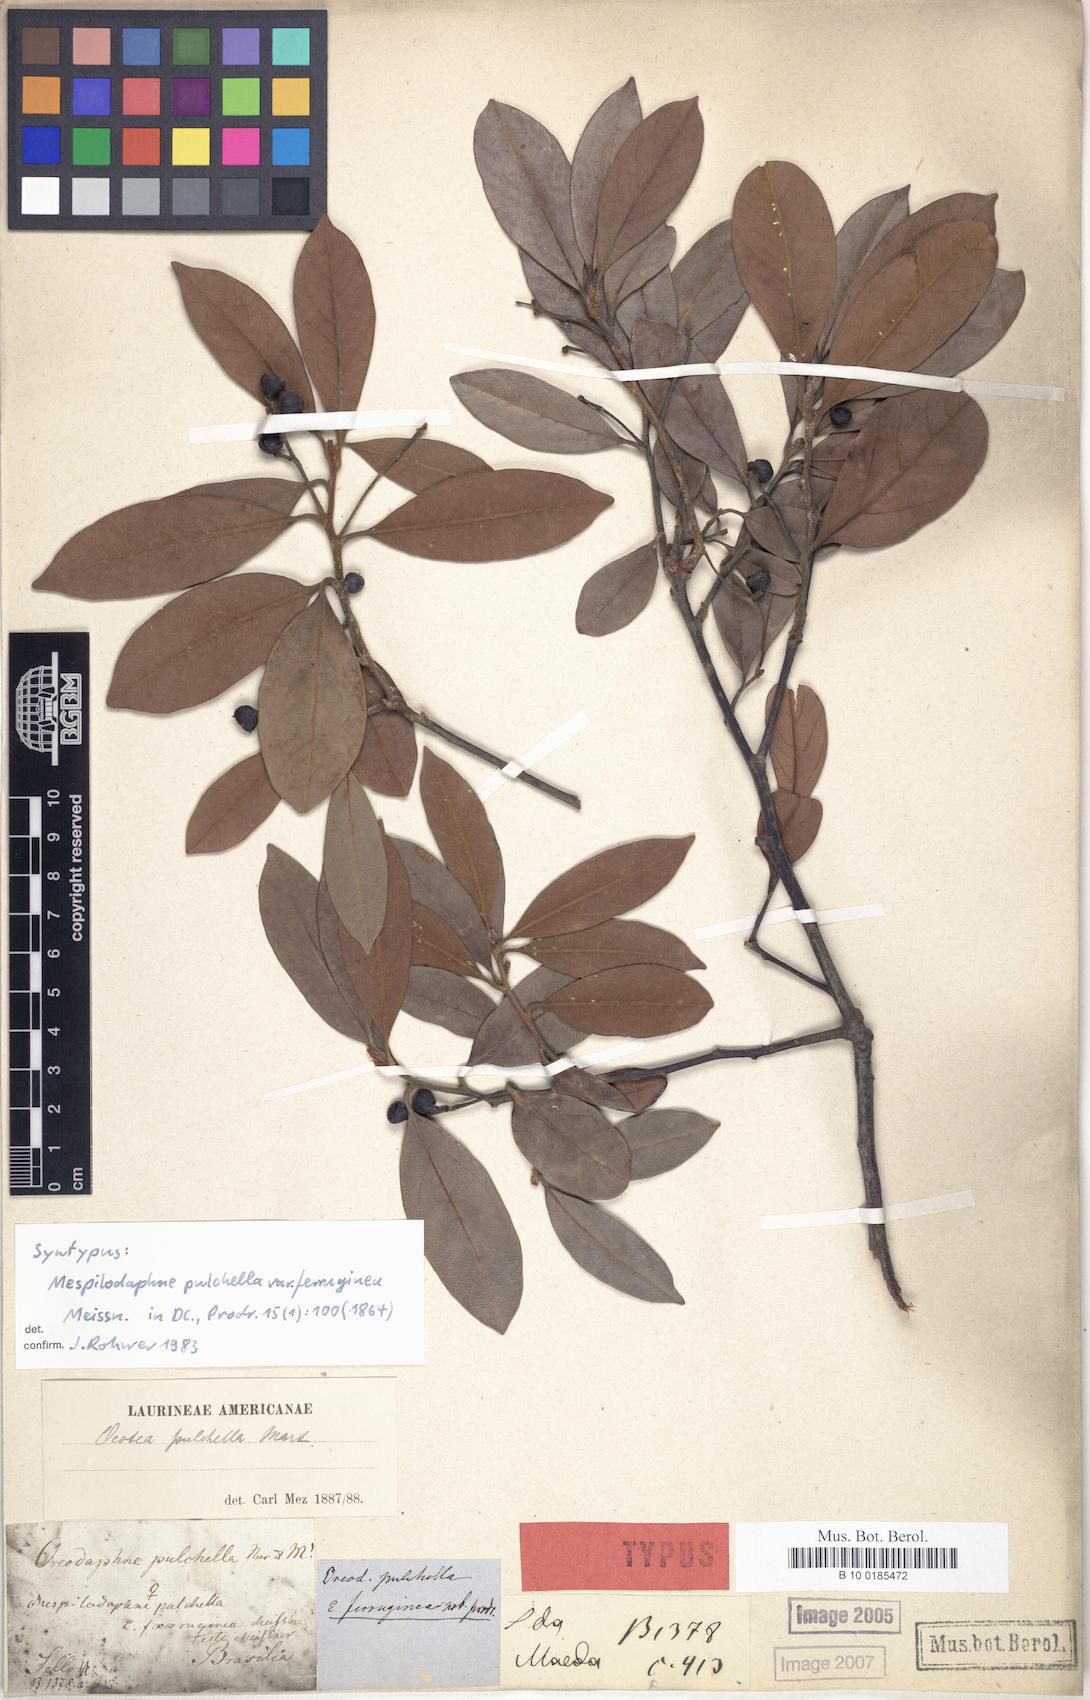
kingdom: Plantae
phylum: Tracheophyta
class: Magnoliopsida
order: Laurales
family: Lauraceae
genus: Mespilodaphne
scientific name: Mespilodaphne pulchella
